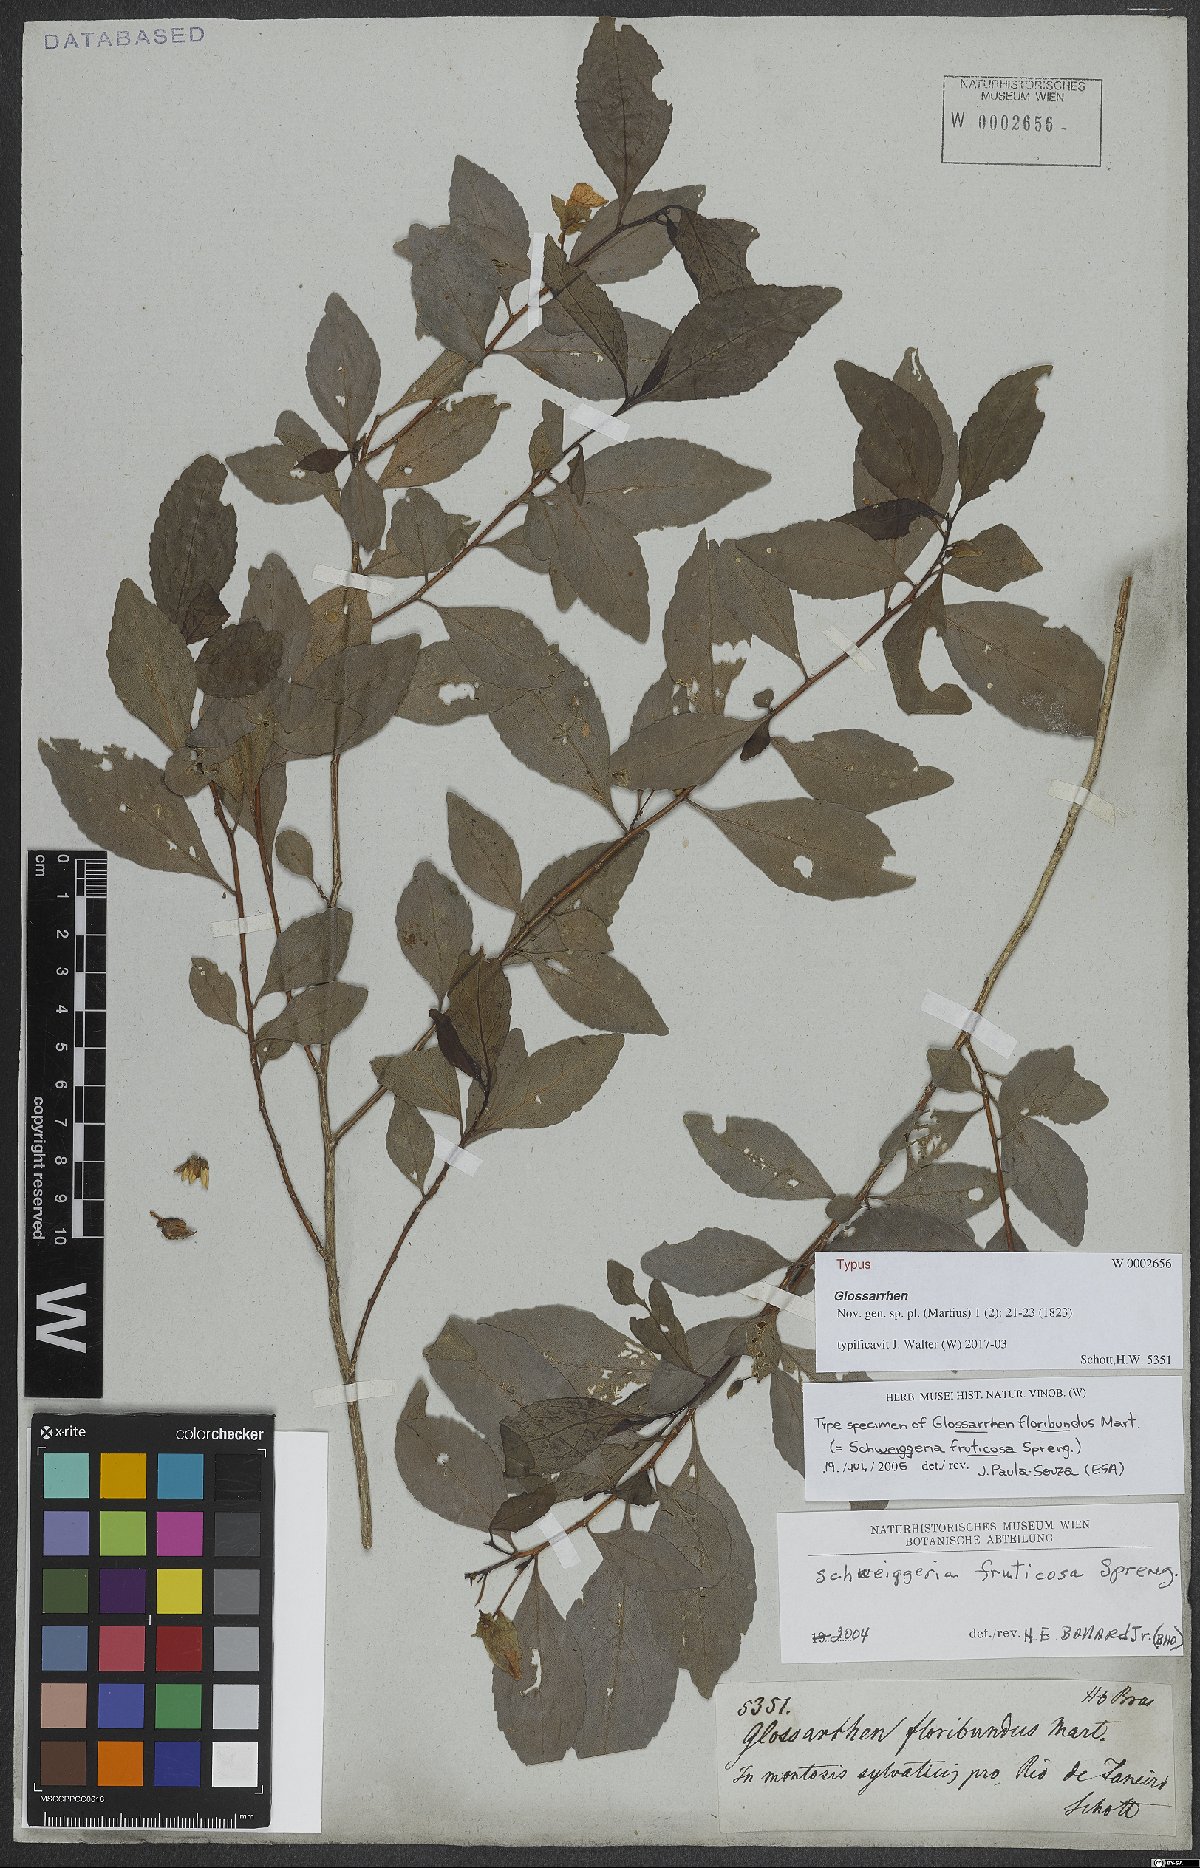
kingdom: Plantae
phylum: Tracheophyta
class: Magnoliopsida
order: Malpighiales
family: Violaceae
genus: Schweiggeria
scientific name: Schweiggeria fruticosa
